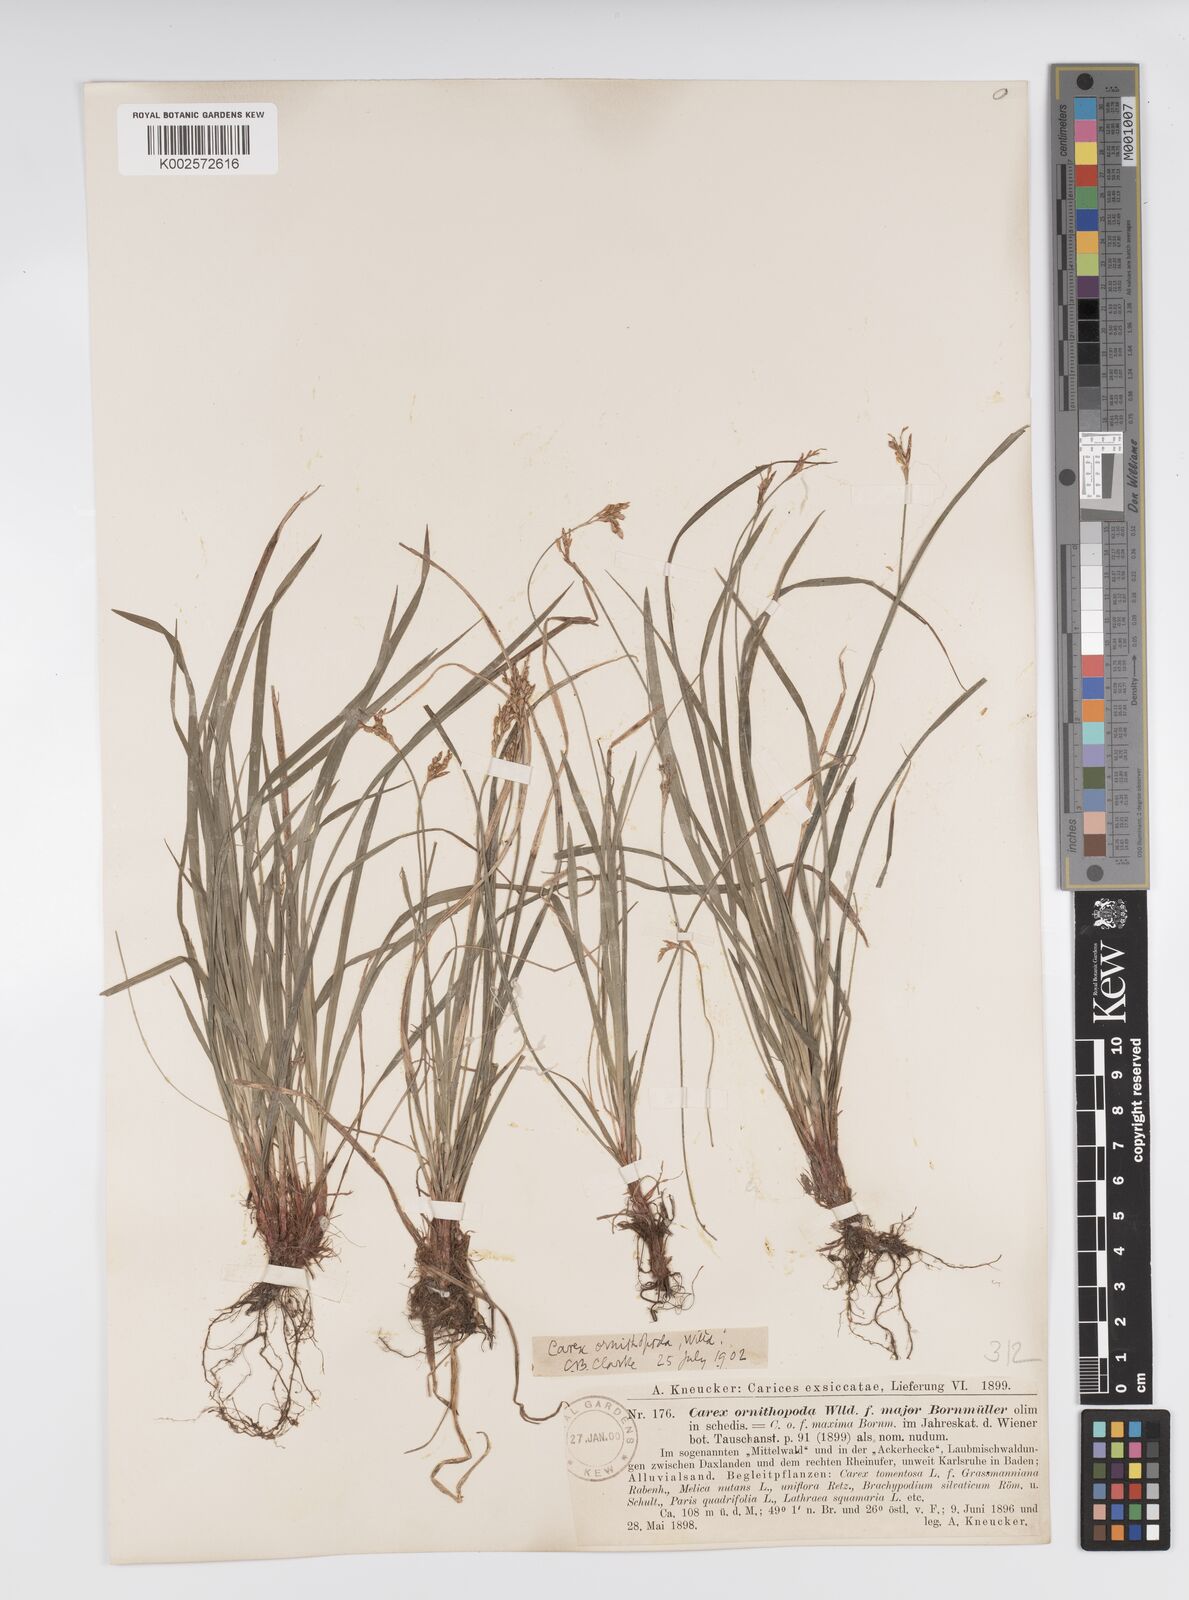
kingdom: Plantae
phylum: Tracheophyta
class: Liliopsida
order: Poales
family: Cyperaceae
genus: Carex
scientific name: Carex ornithopoda
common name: Bird's-foot sedge
